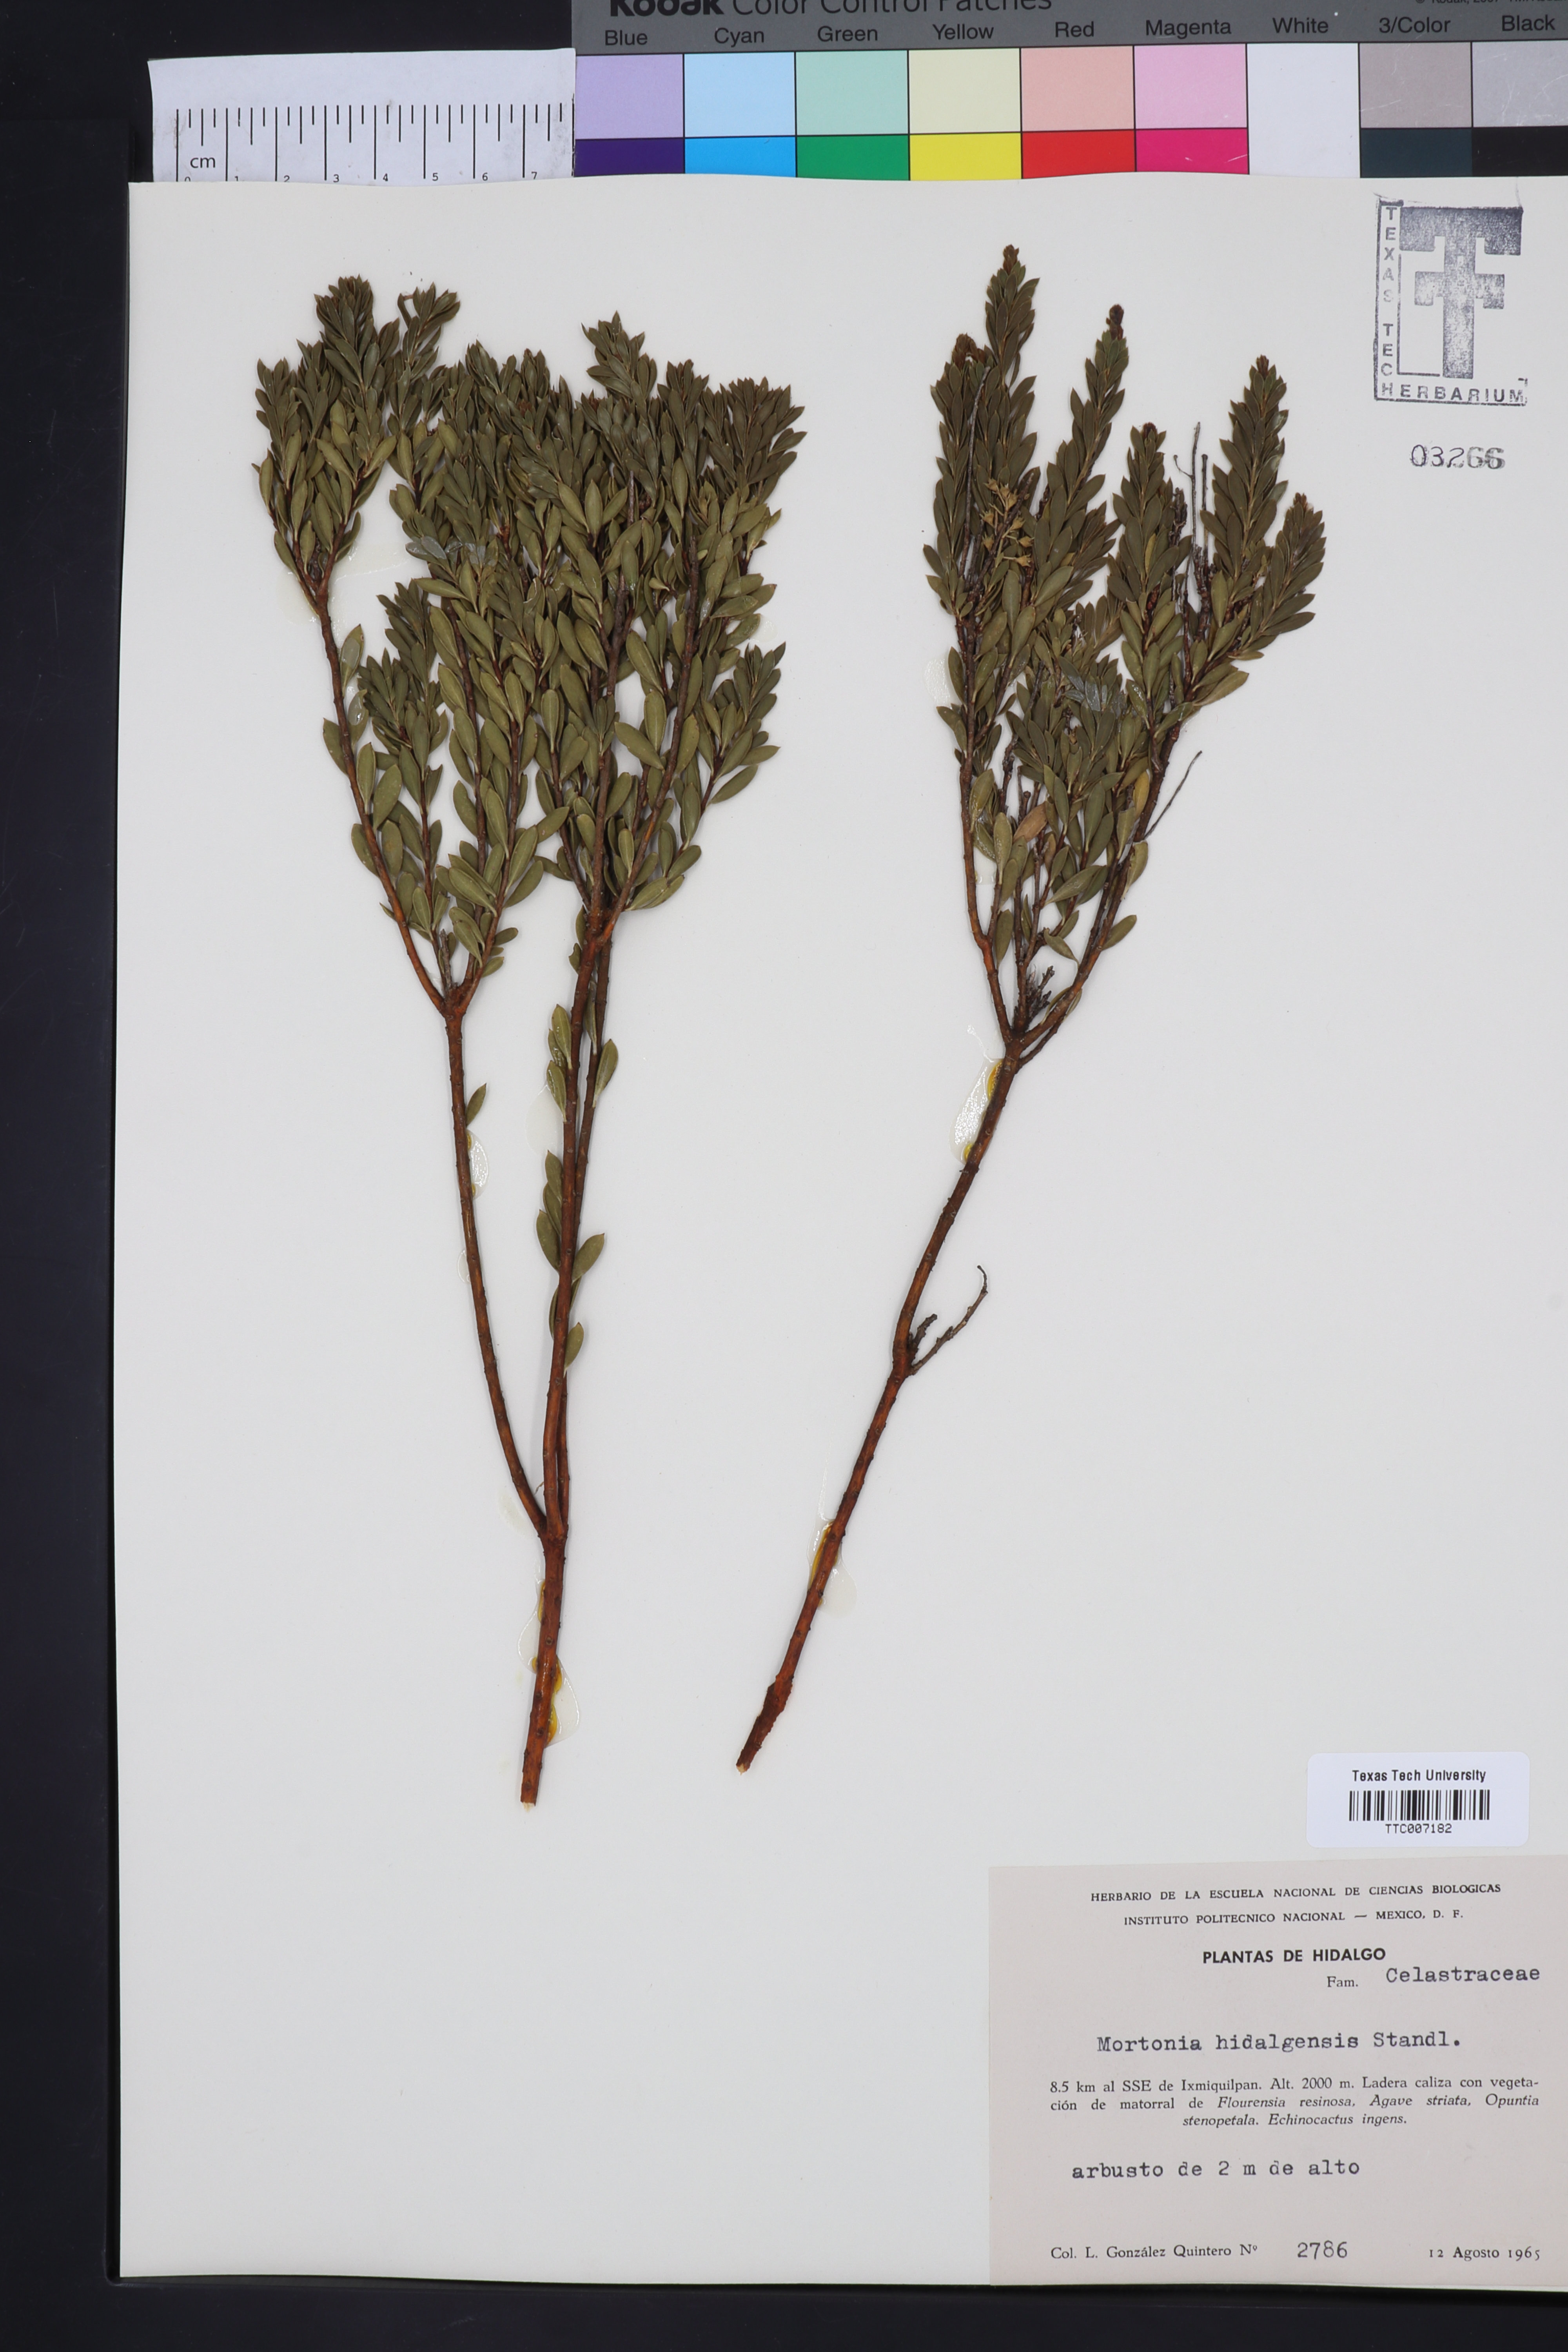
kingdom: Plantae
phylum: Tracheophyta
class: Magnoliopsida
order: Celastrales
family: Celastraceae
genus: Mortonia
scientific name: Mortonia latisepala
